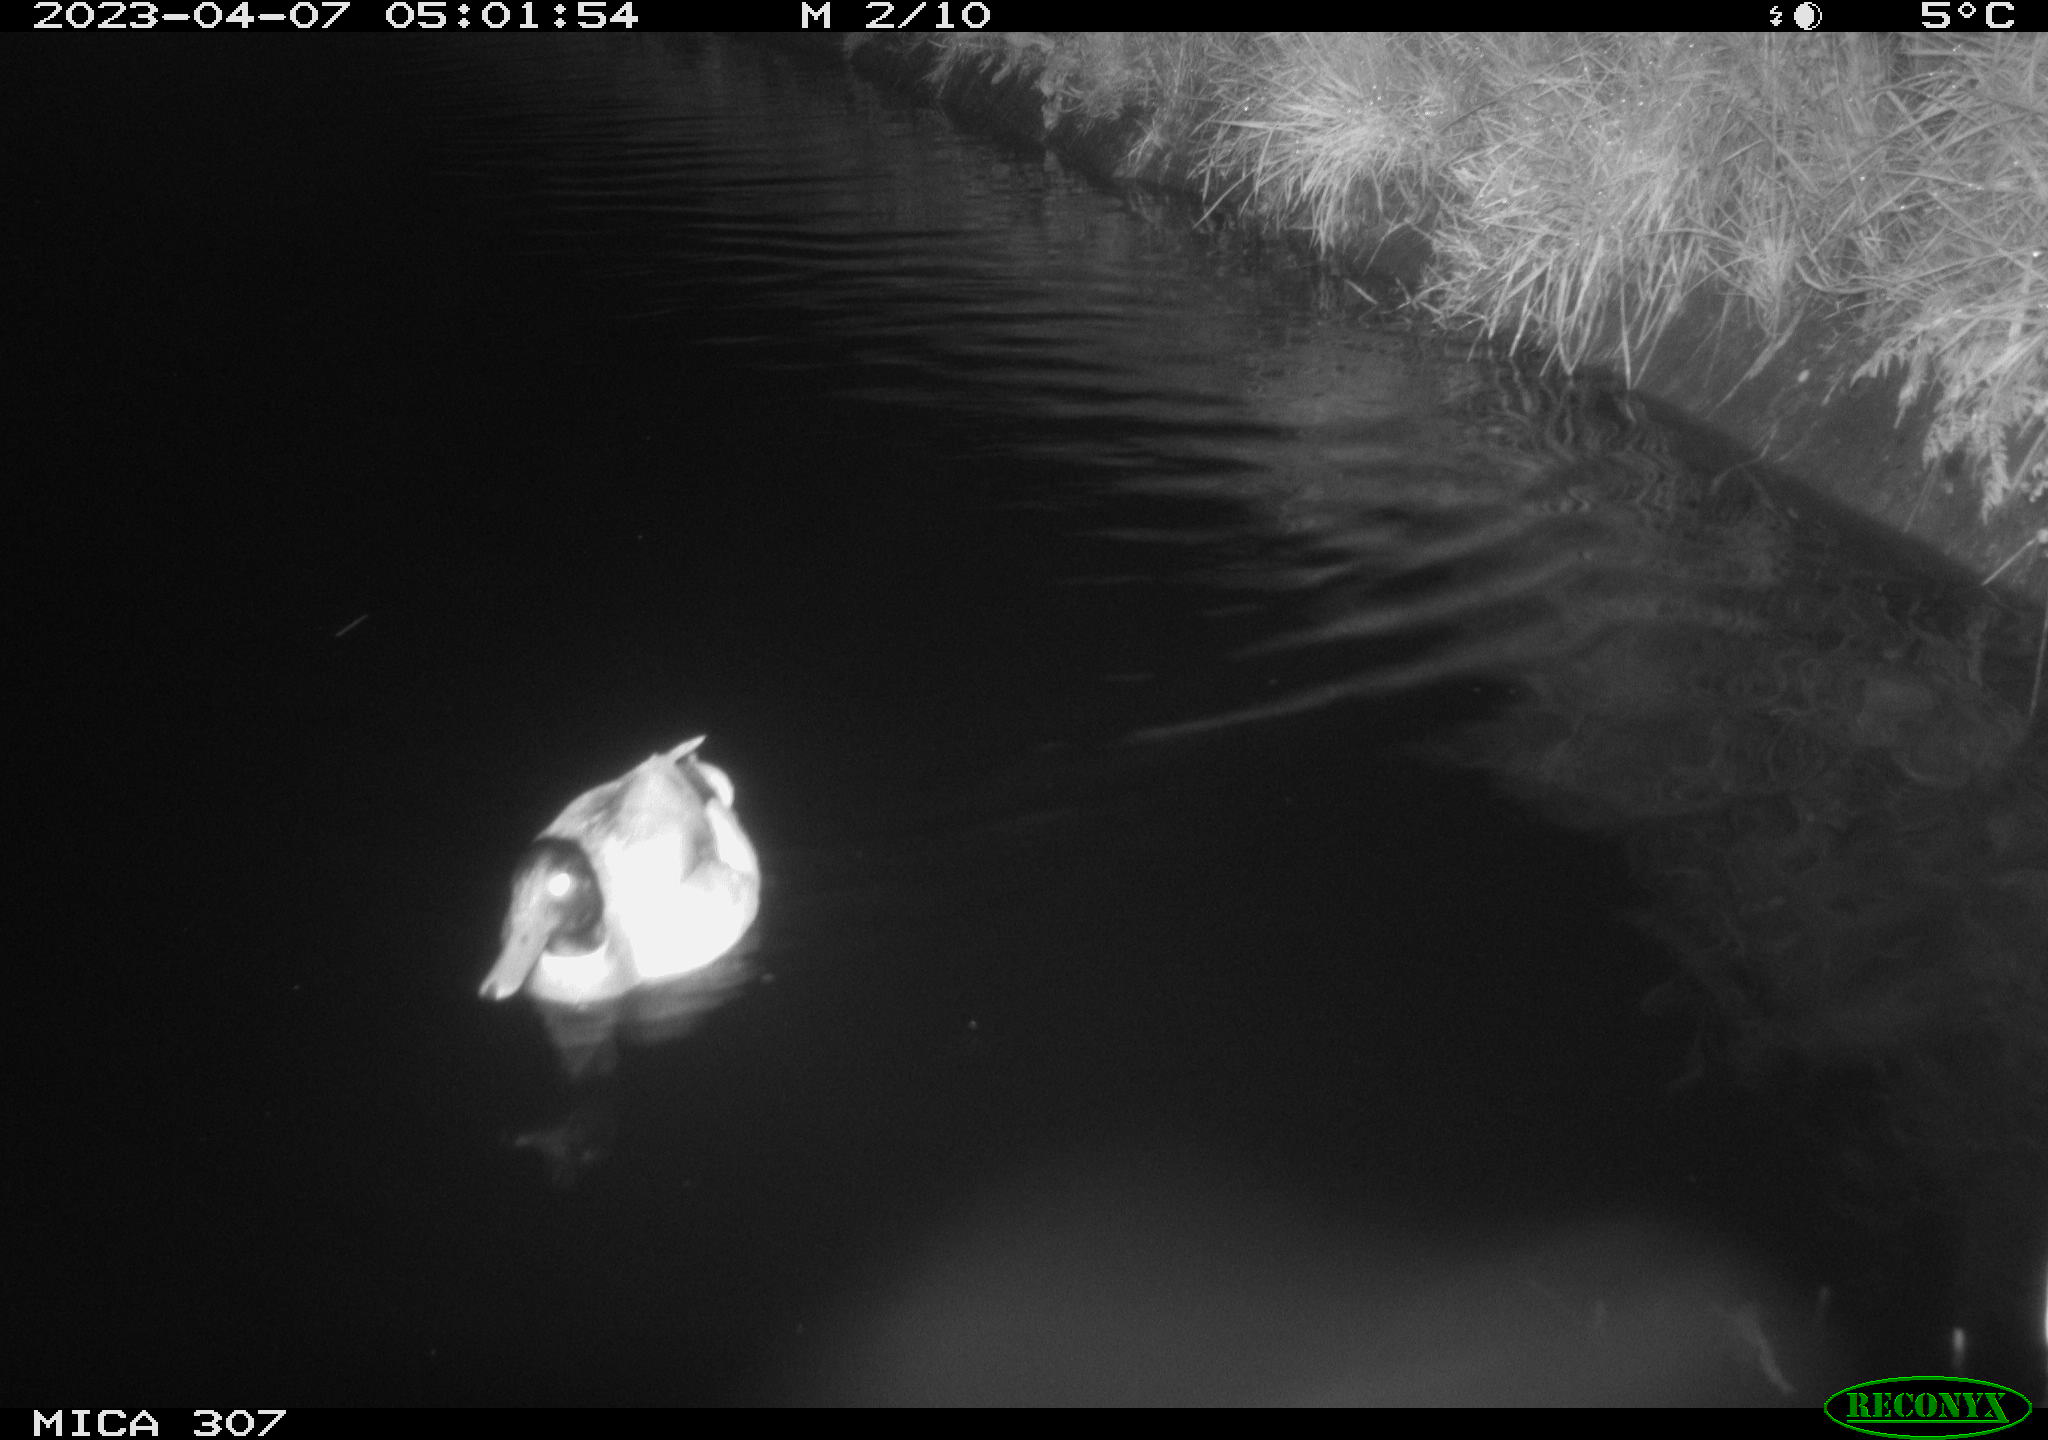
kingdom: Animalia
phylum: Chordata
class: Aves
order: Anseriformes
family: Anatidae
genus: Anas
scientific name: Anas
